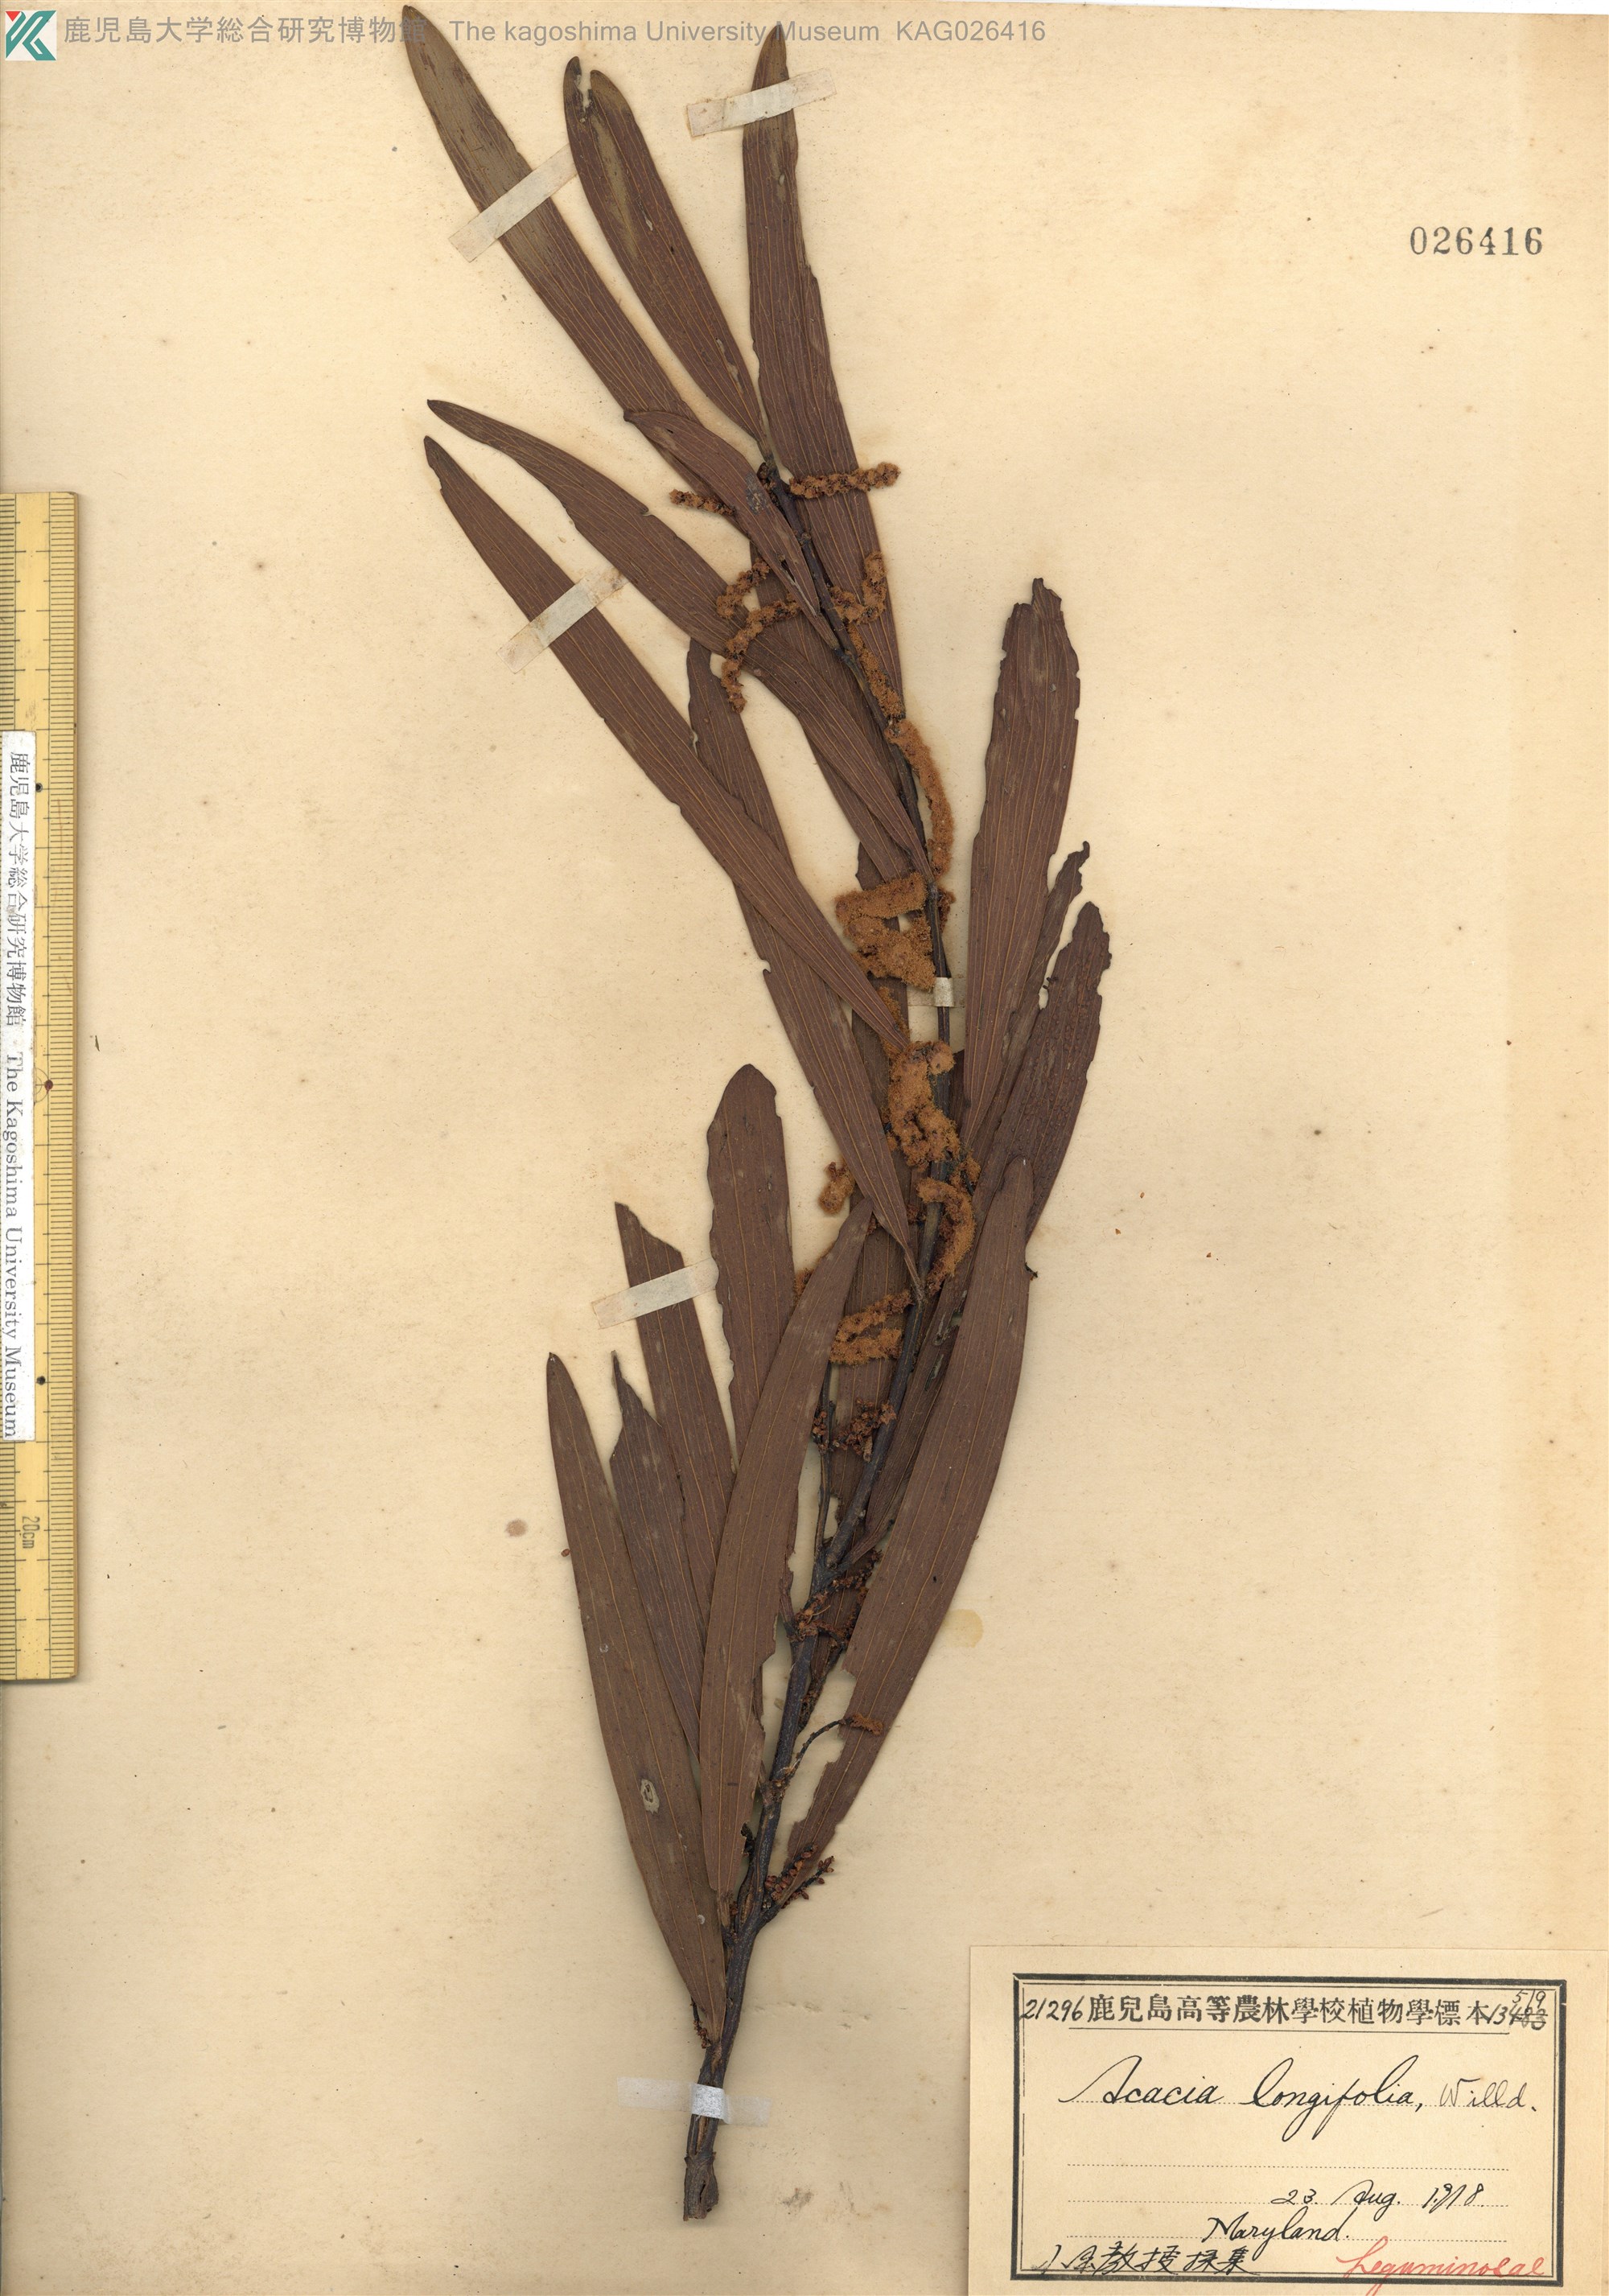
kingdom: Plantae
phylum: Tracheophyta
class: Magnoliopsida
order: Fabales
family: Fabaceae
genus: Acacia
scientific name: Acacia longifolia
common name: Sydney golden wattle
